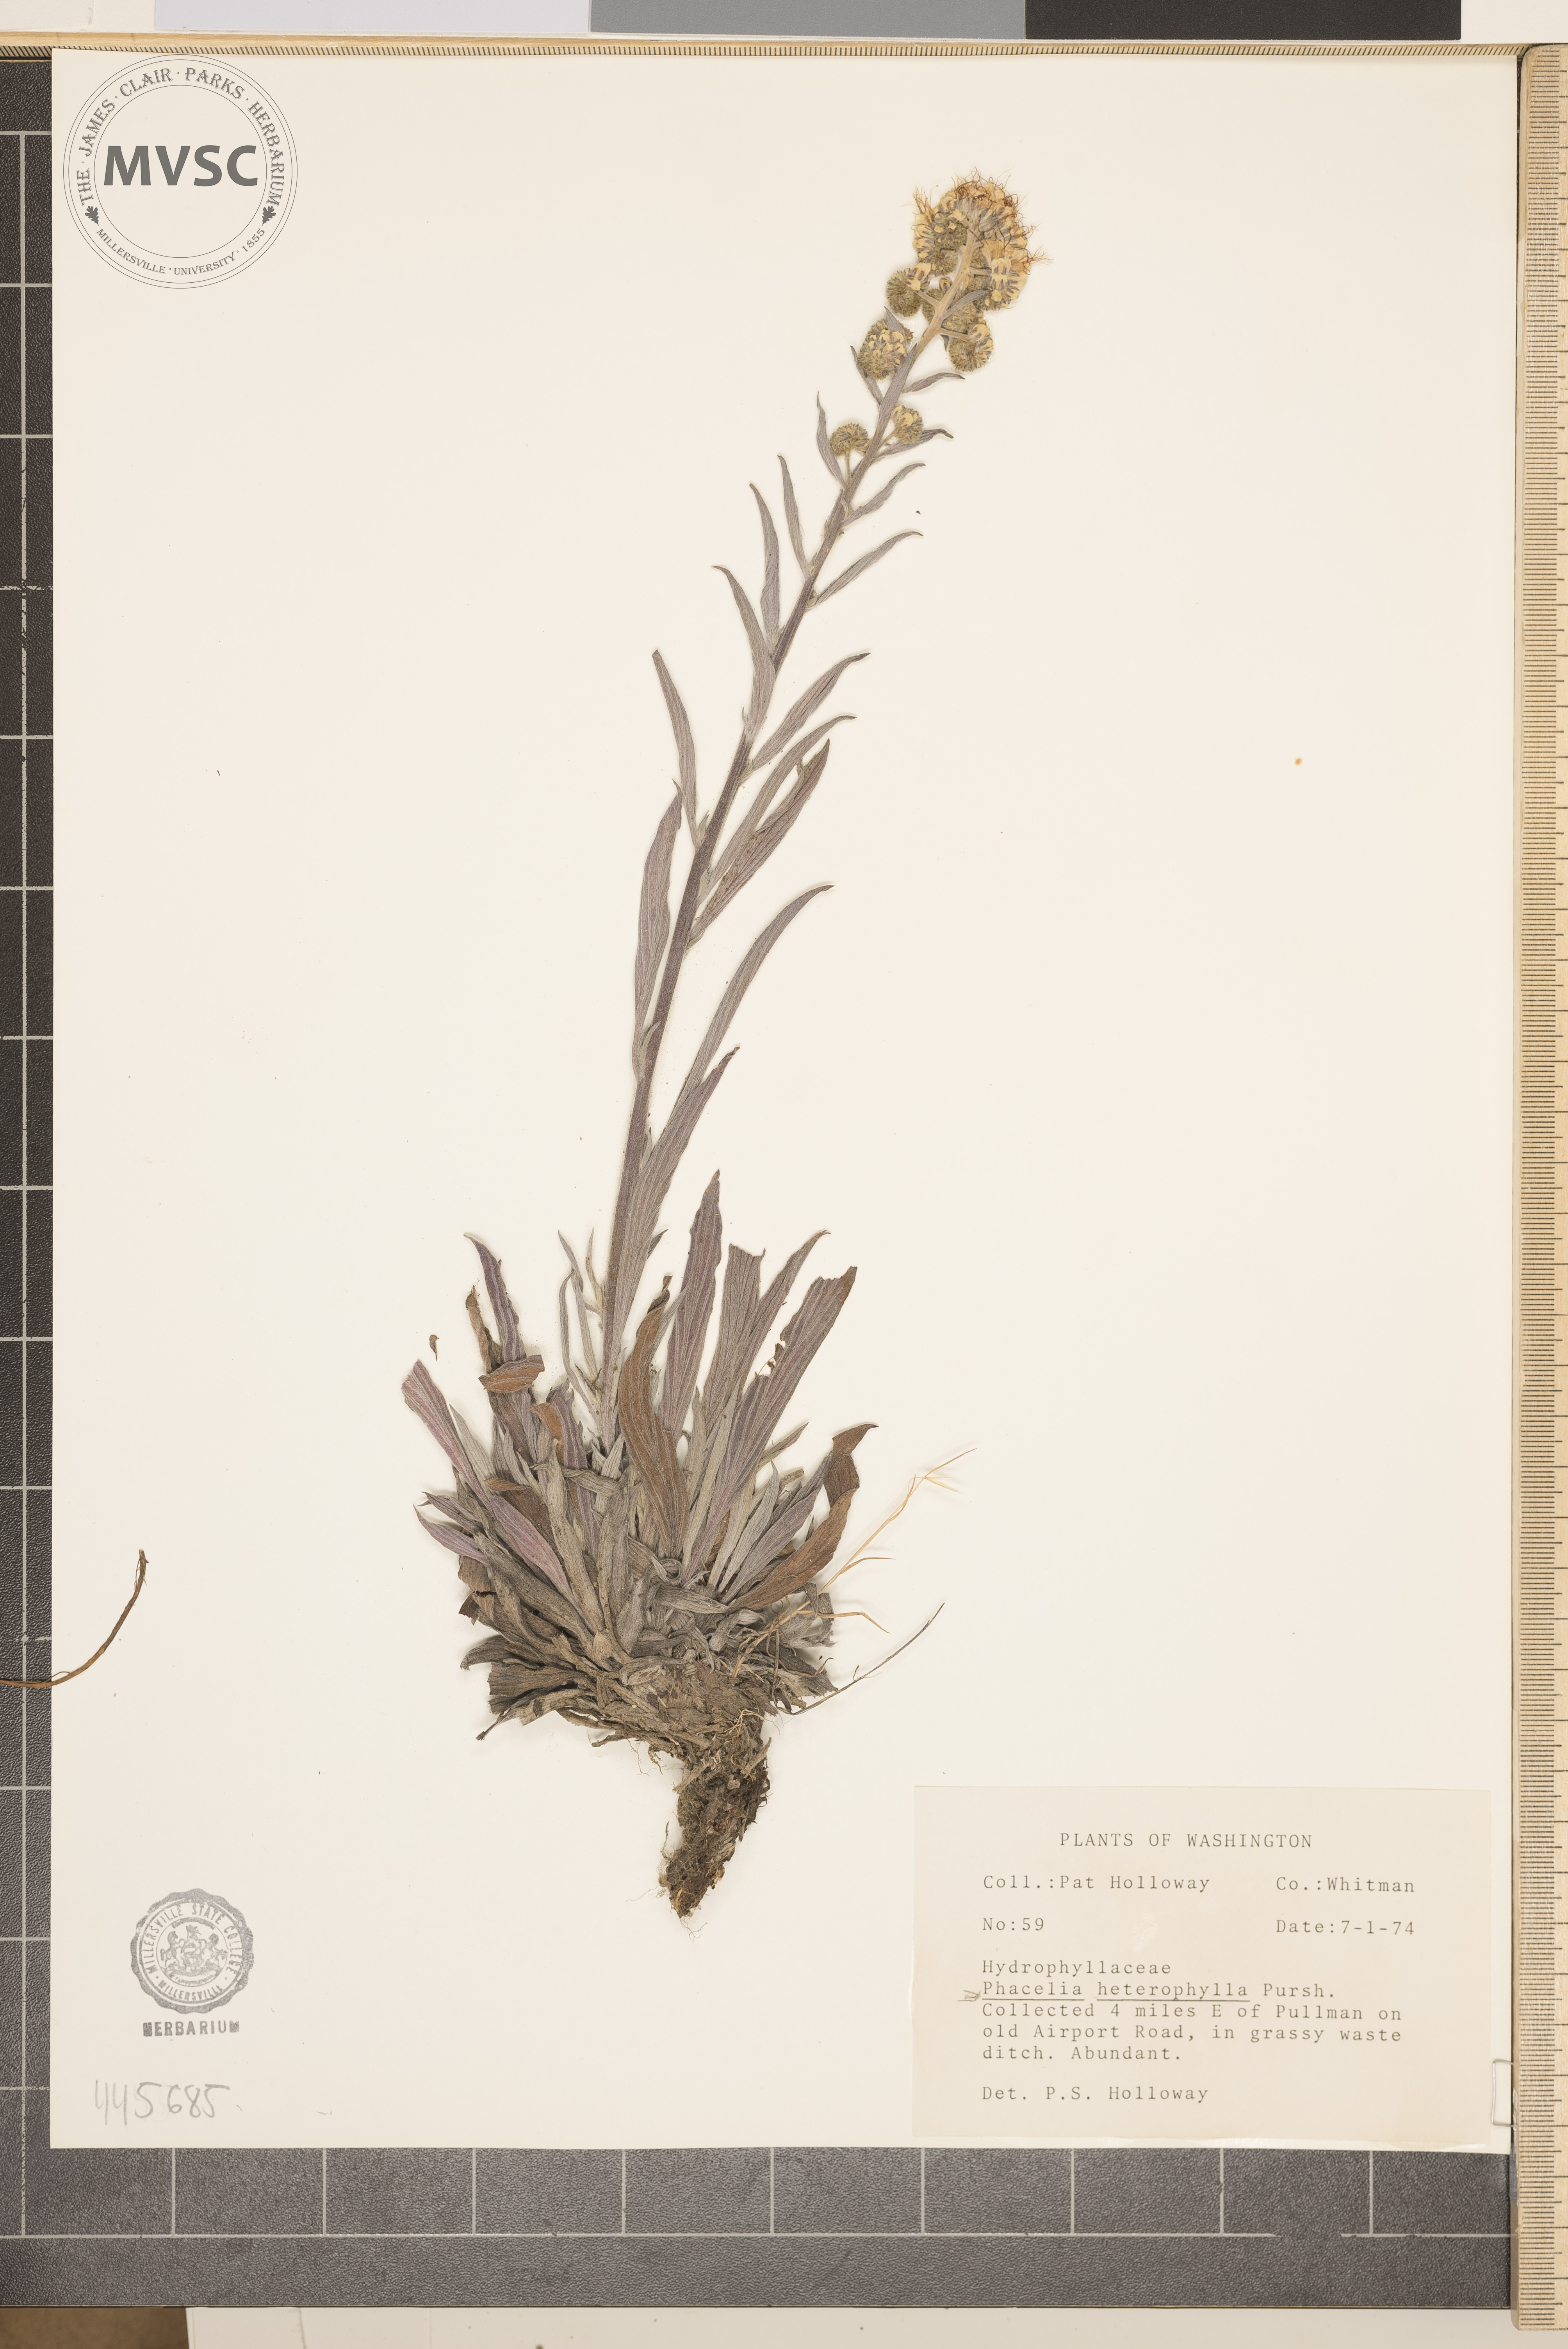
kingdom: Plantae
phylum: Tracheophyta
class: Magnoliopsida
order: Boraginales
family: Hydrophyllaceae
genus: Phacelia
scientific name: Phacelia heterophylla
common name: Variable-leaved phacelia
